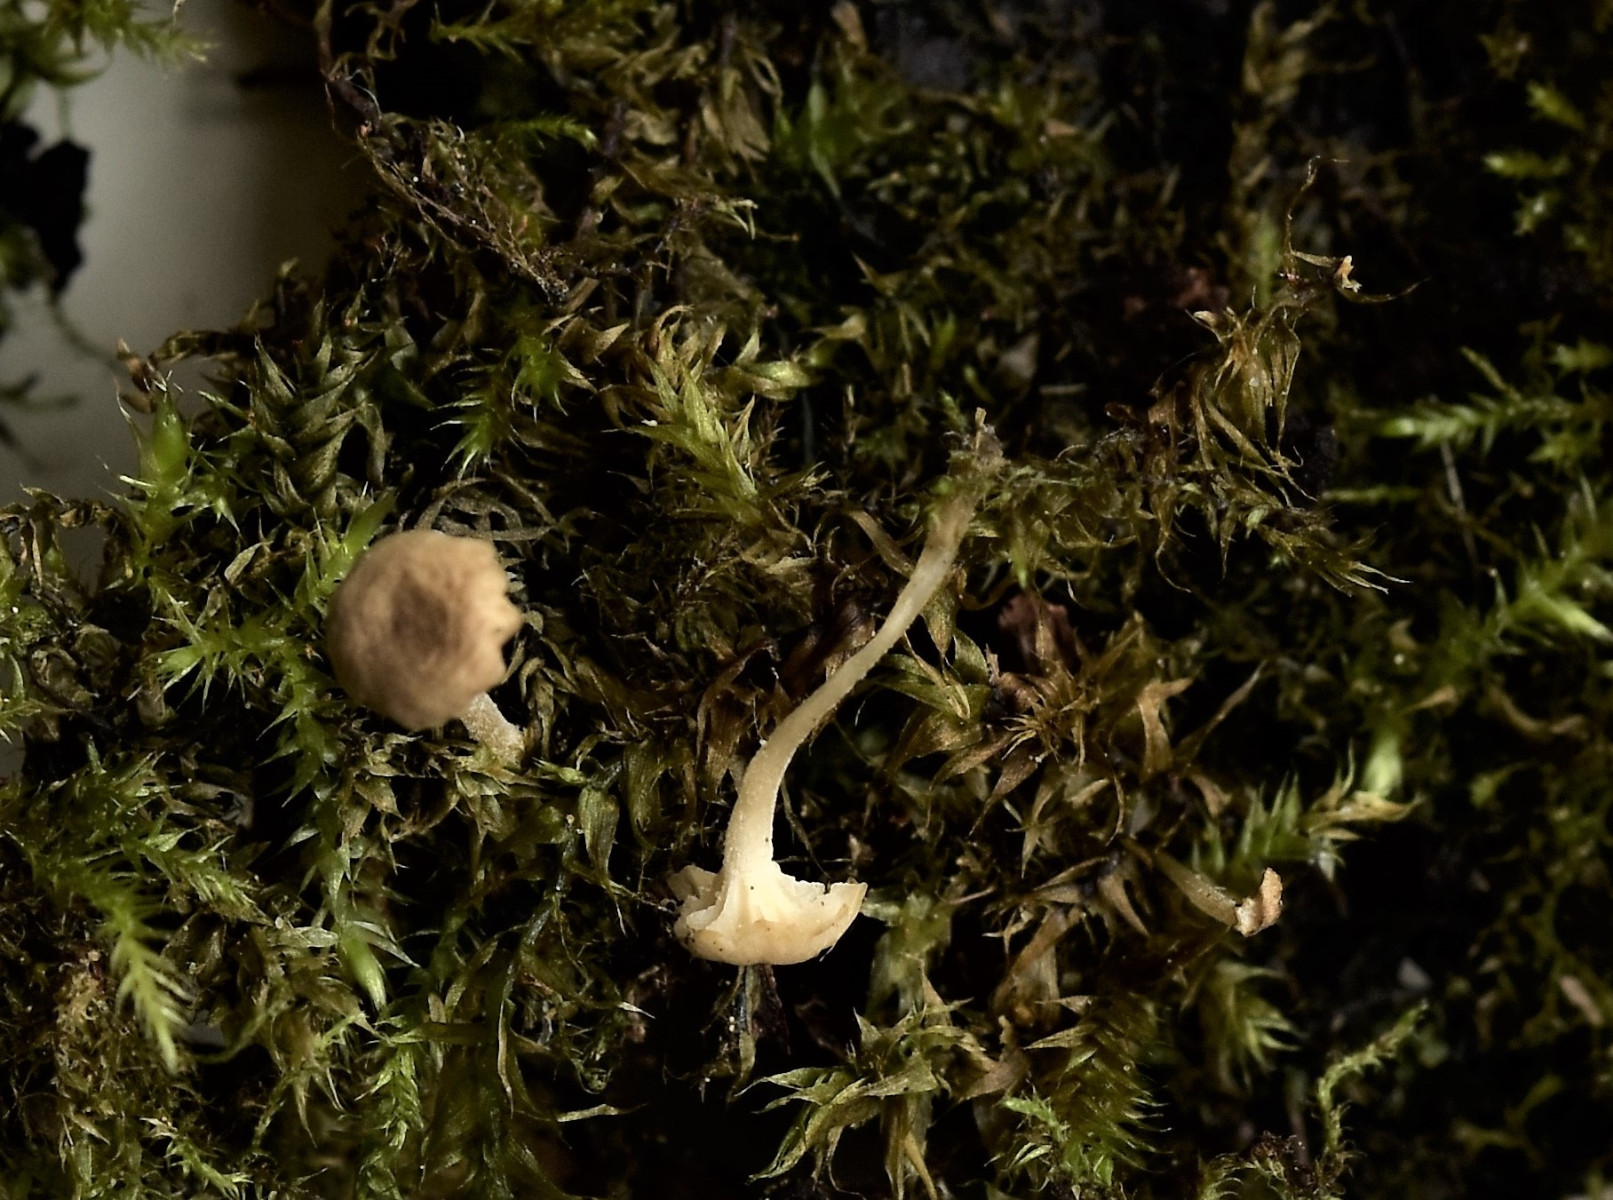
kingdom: Fungi
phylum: Basidiomycota
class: Agaricomycetes
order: Agaricales
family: Porotheleaceae
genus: Phloeomana
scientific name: Phloeomana speirea
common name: kvist-huesvamp
